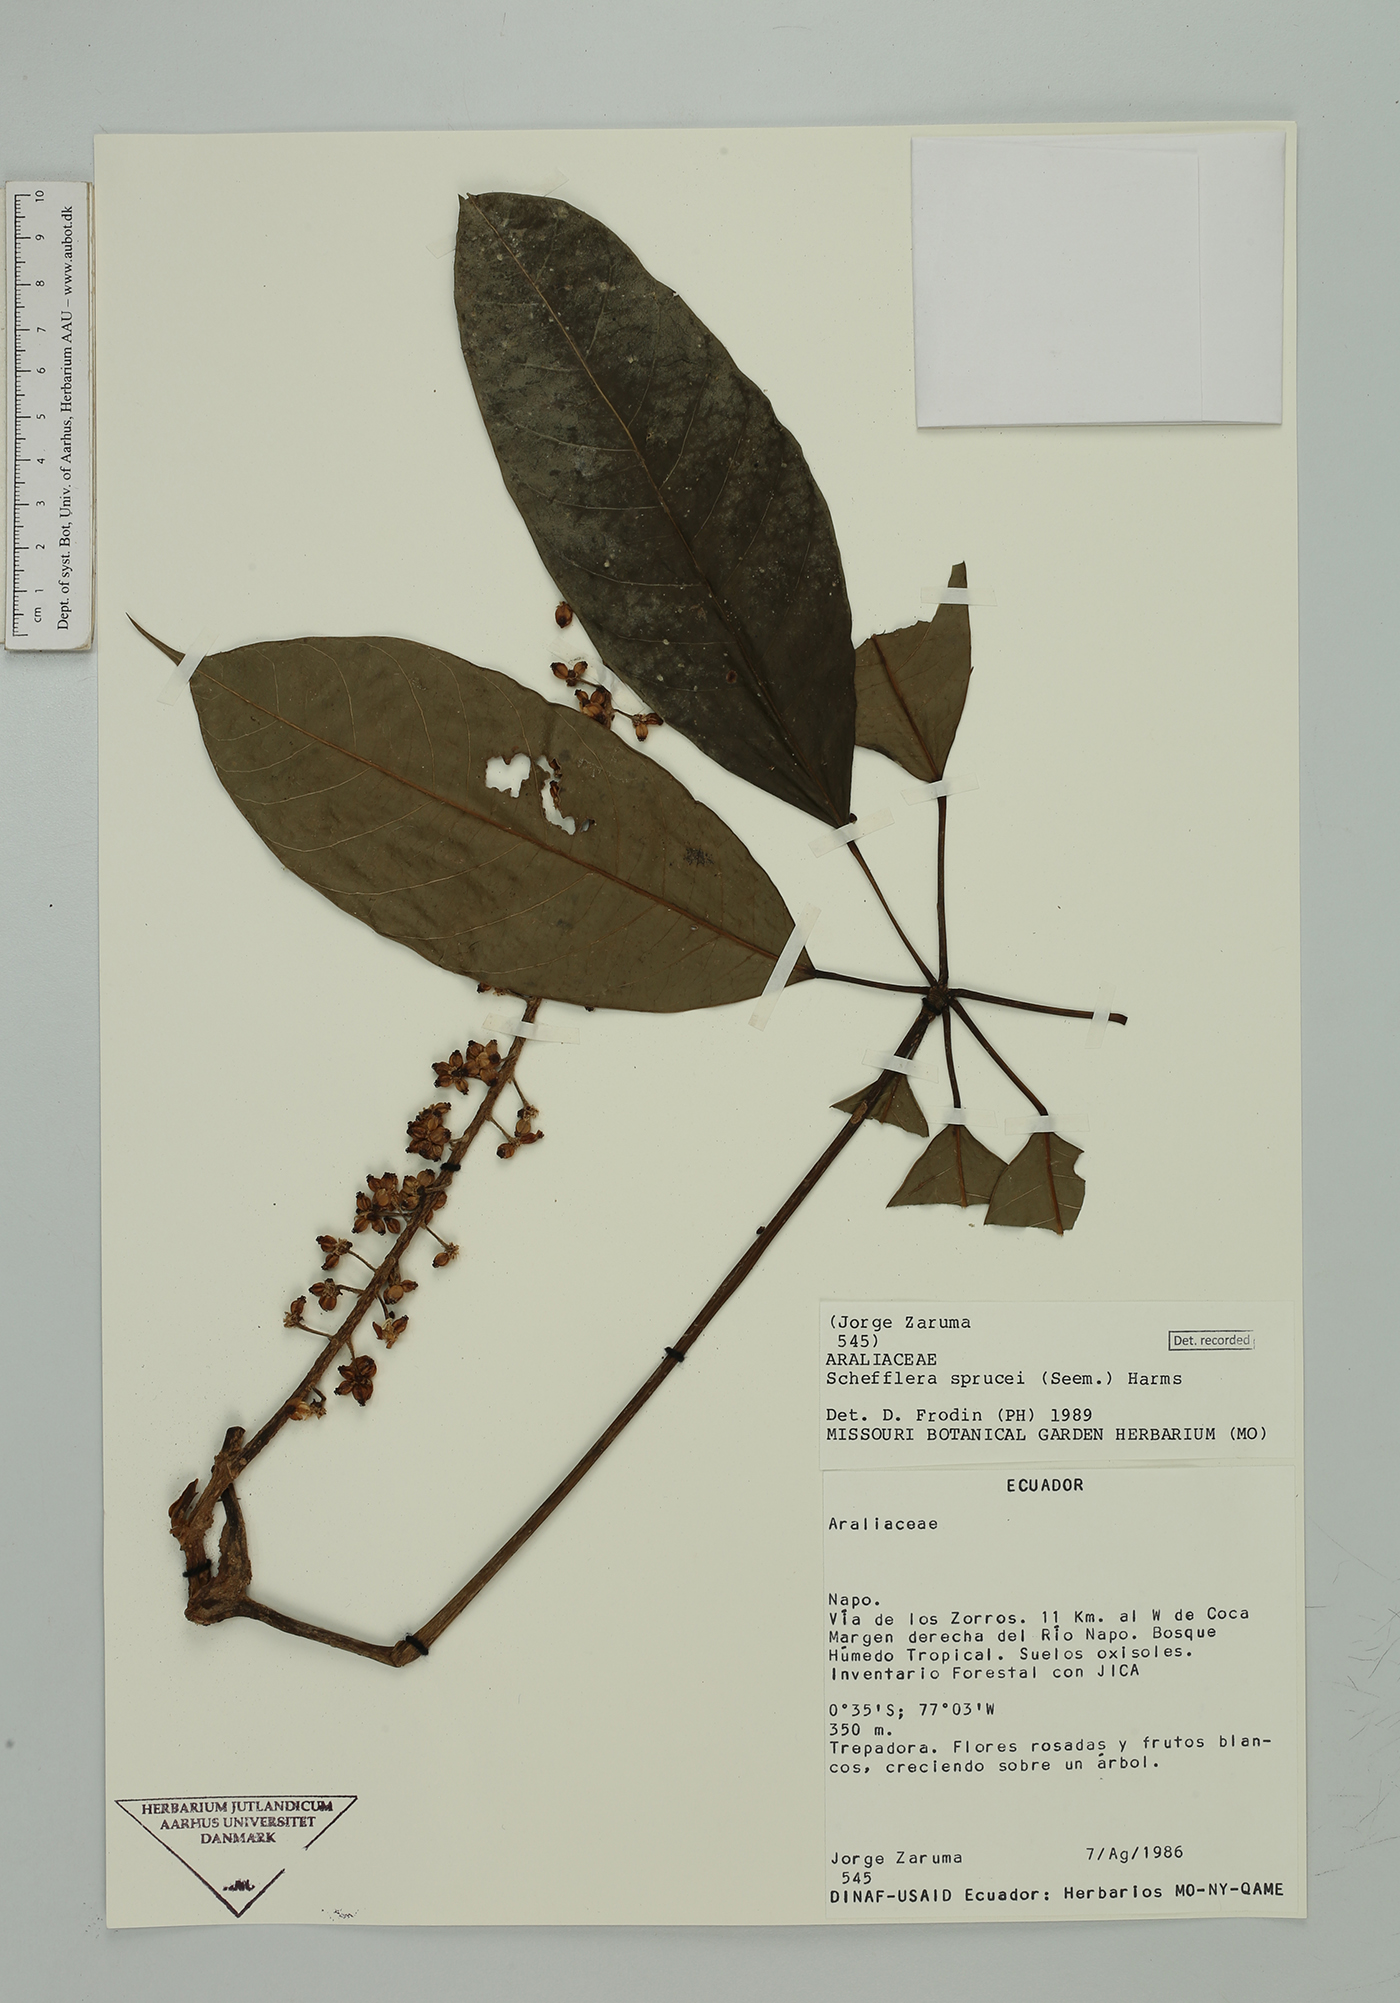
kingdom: Plantae
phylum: Tracheophyta
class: Magnoliopsida
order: Apiales
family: Araliaceae
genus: Sciodaphyllum
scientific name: Sciodaphyllum sprucei
